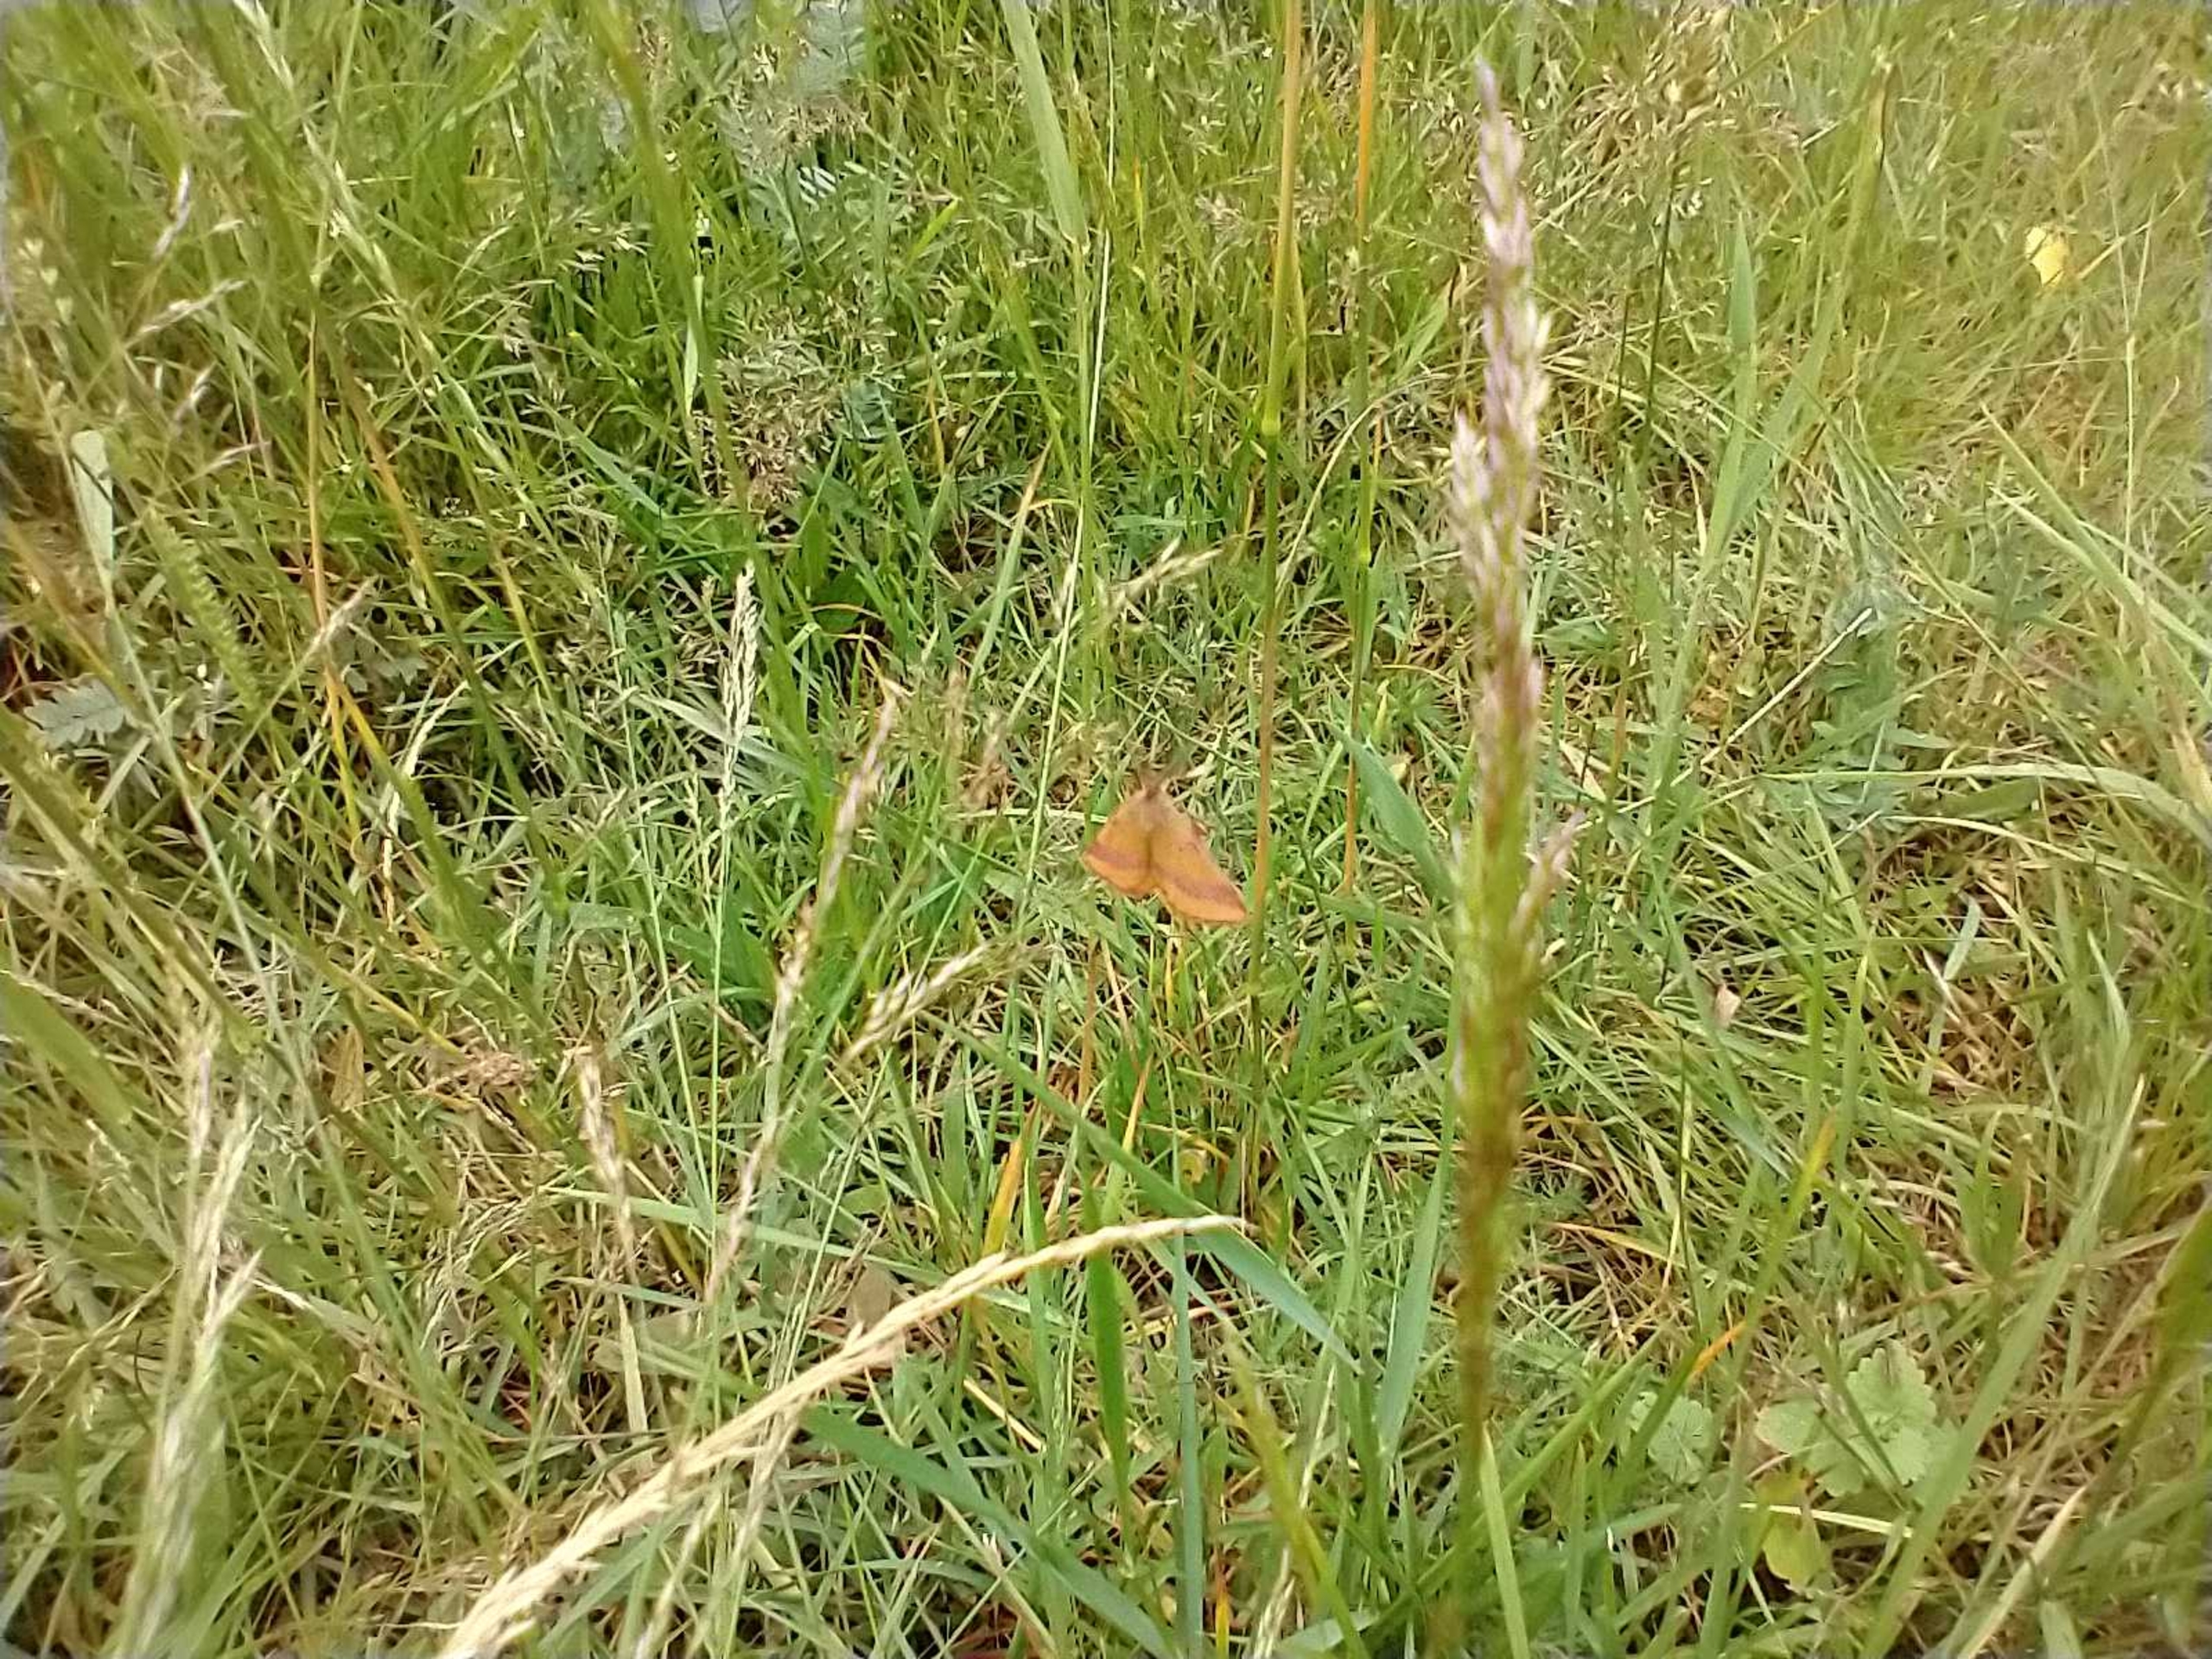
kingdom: Animalia
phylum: Arthropoda
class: Insecta
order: Lepidoptera
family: Geometridae
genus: Lythria
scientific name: Lythria cruentaria
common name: Purpurmåler
